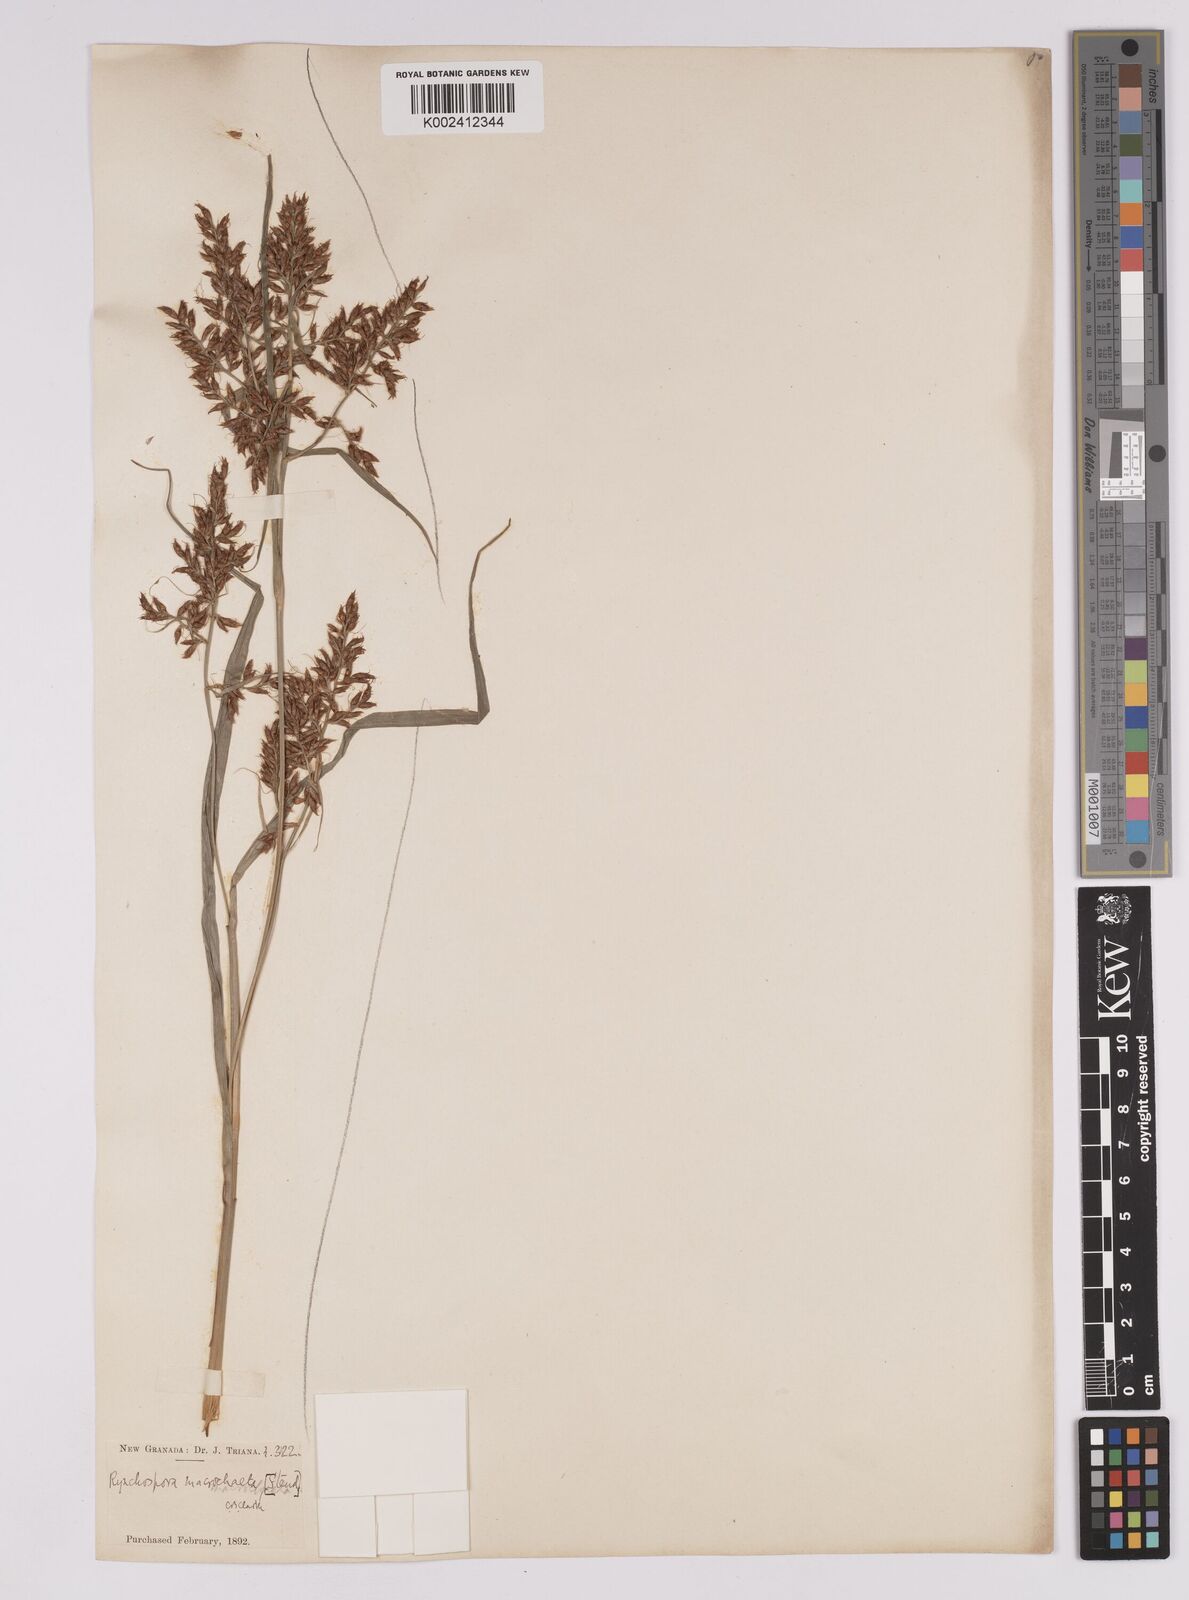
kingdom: Plantae
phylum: Tracheophyta
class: Liliopsida
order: Poales
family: Cyperaceae
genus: Rhynchospora
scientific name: Rhynchospora macrochaeta
